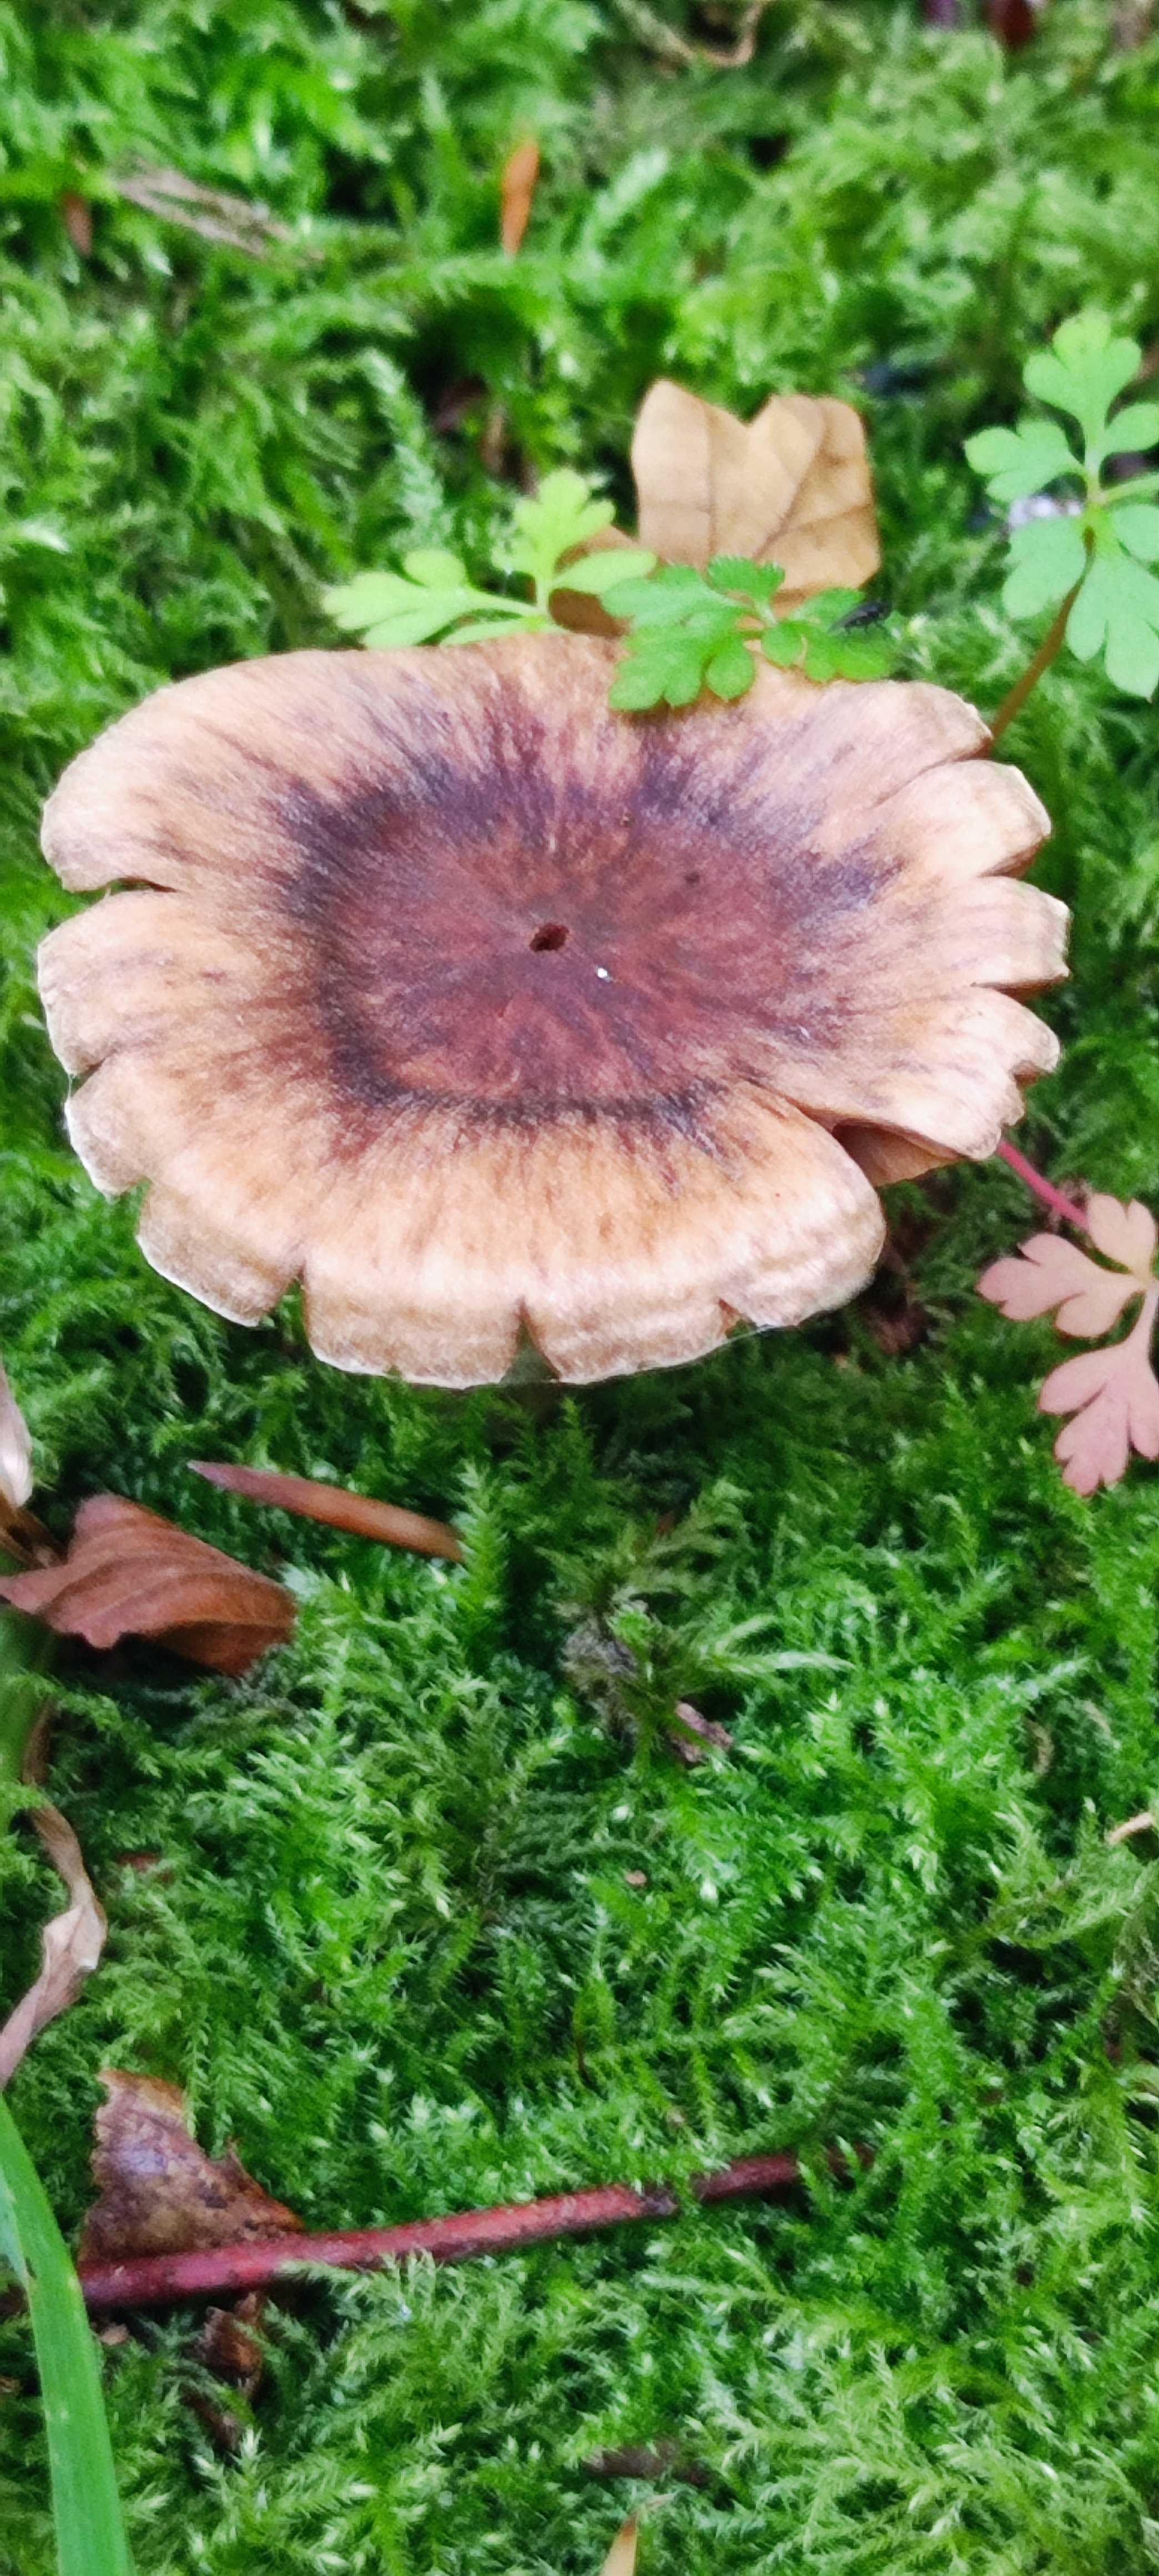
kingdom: Fungi
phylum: Basidiomycota
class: Agaricomycetes
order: Agaricales
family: Cortinariaceae
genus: Cortinarius
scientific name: Cortinarius
